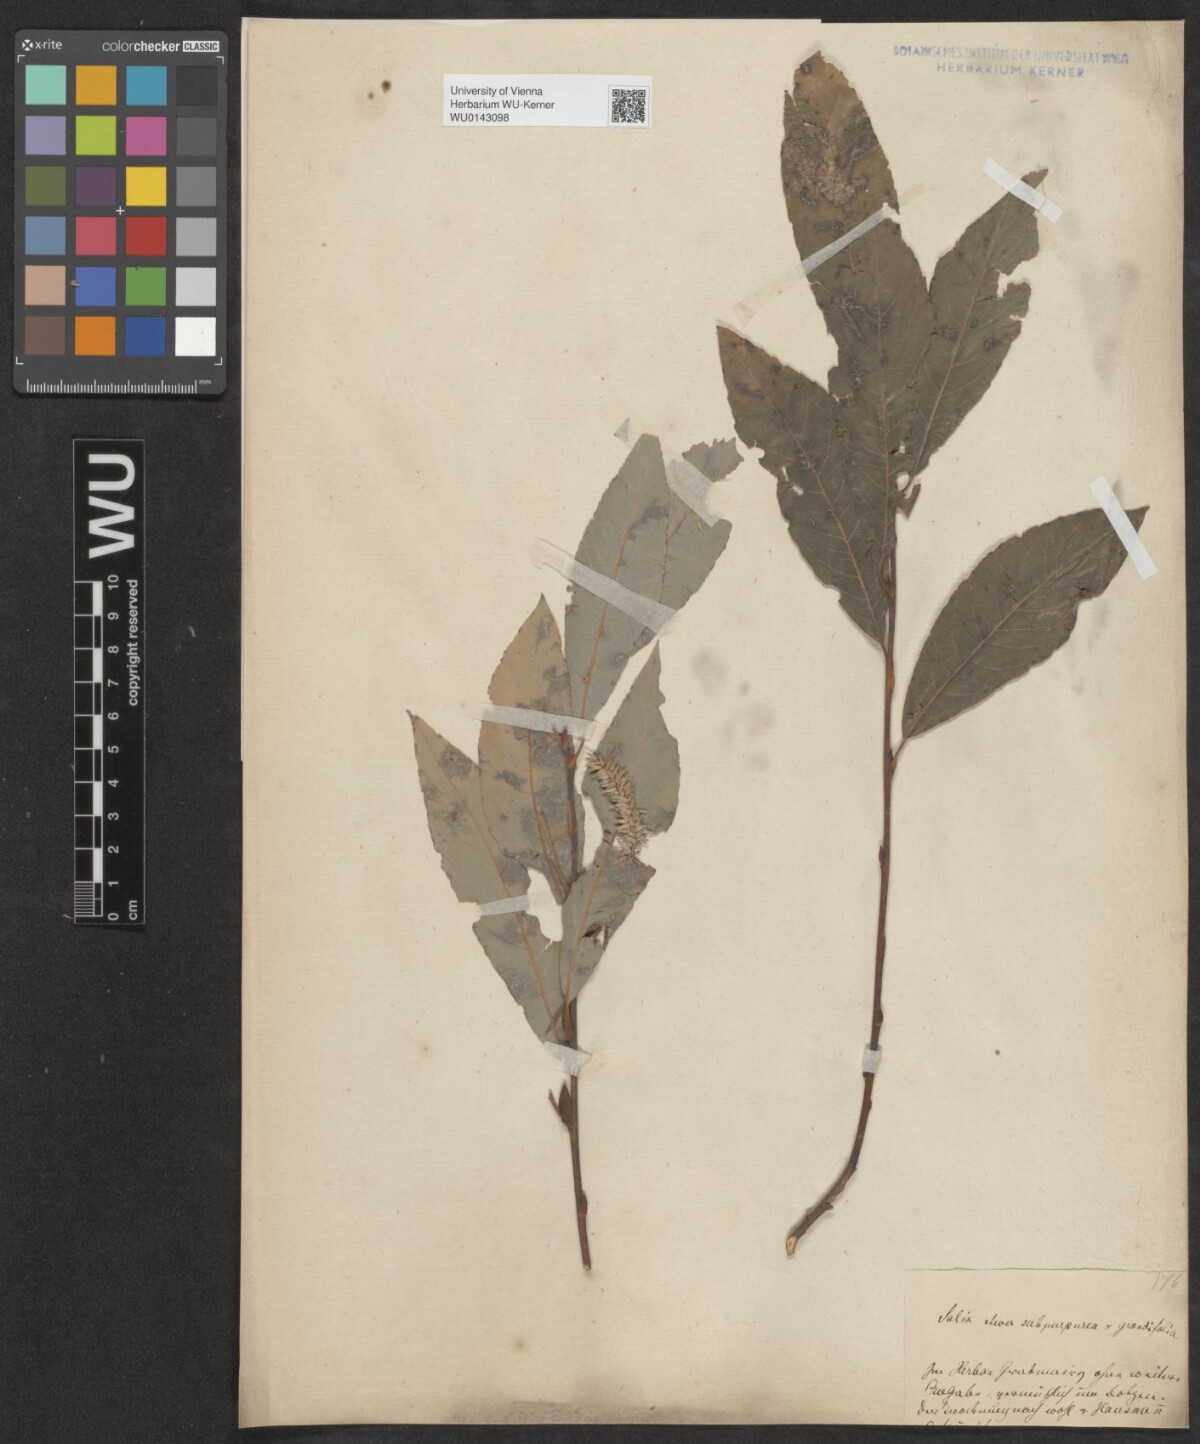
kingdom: Plantae
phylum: Tracheophyta
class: Magnoliopsida
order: Malpighiales
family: Salicaceae
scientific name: Salicaceae
